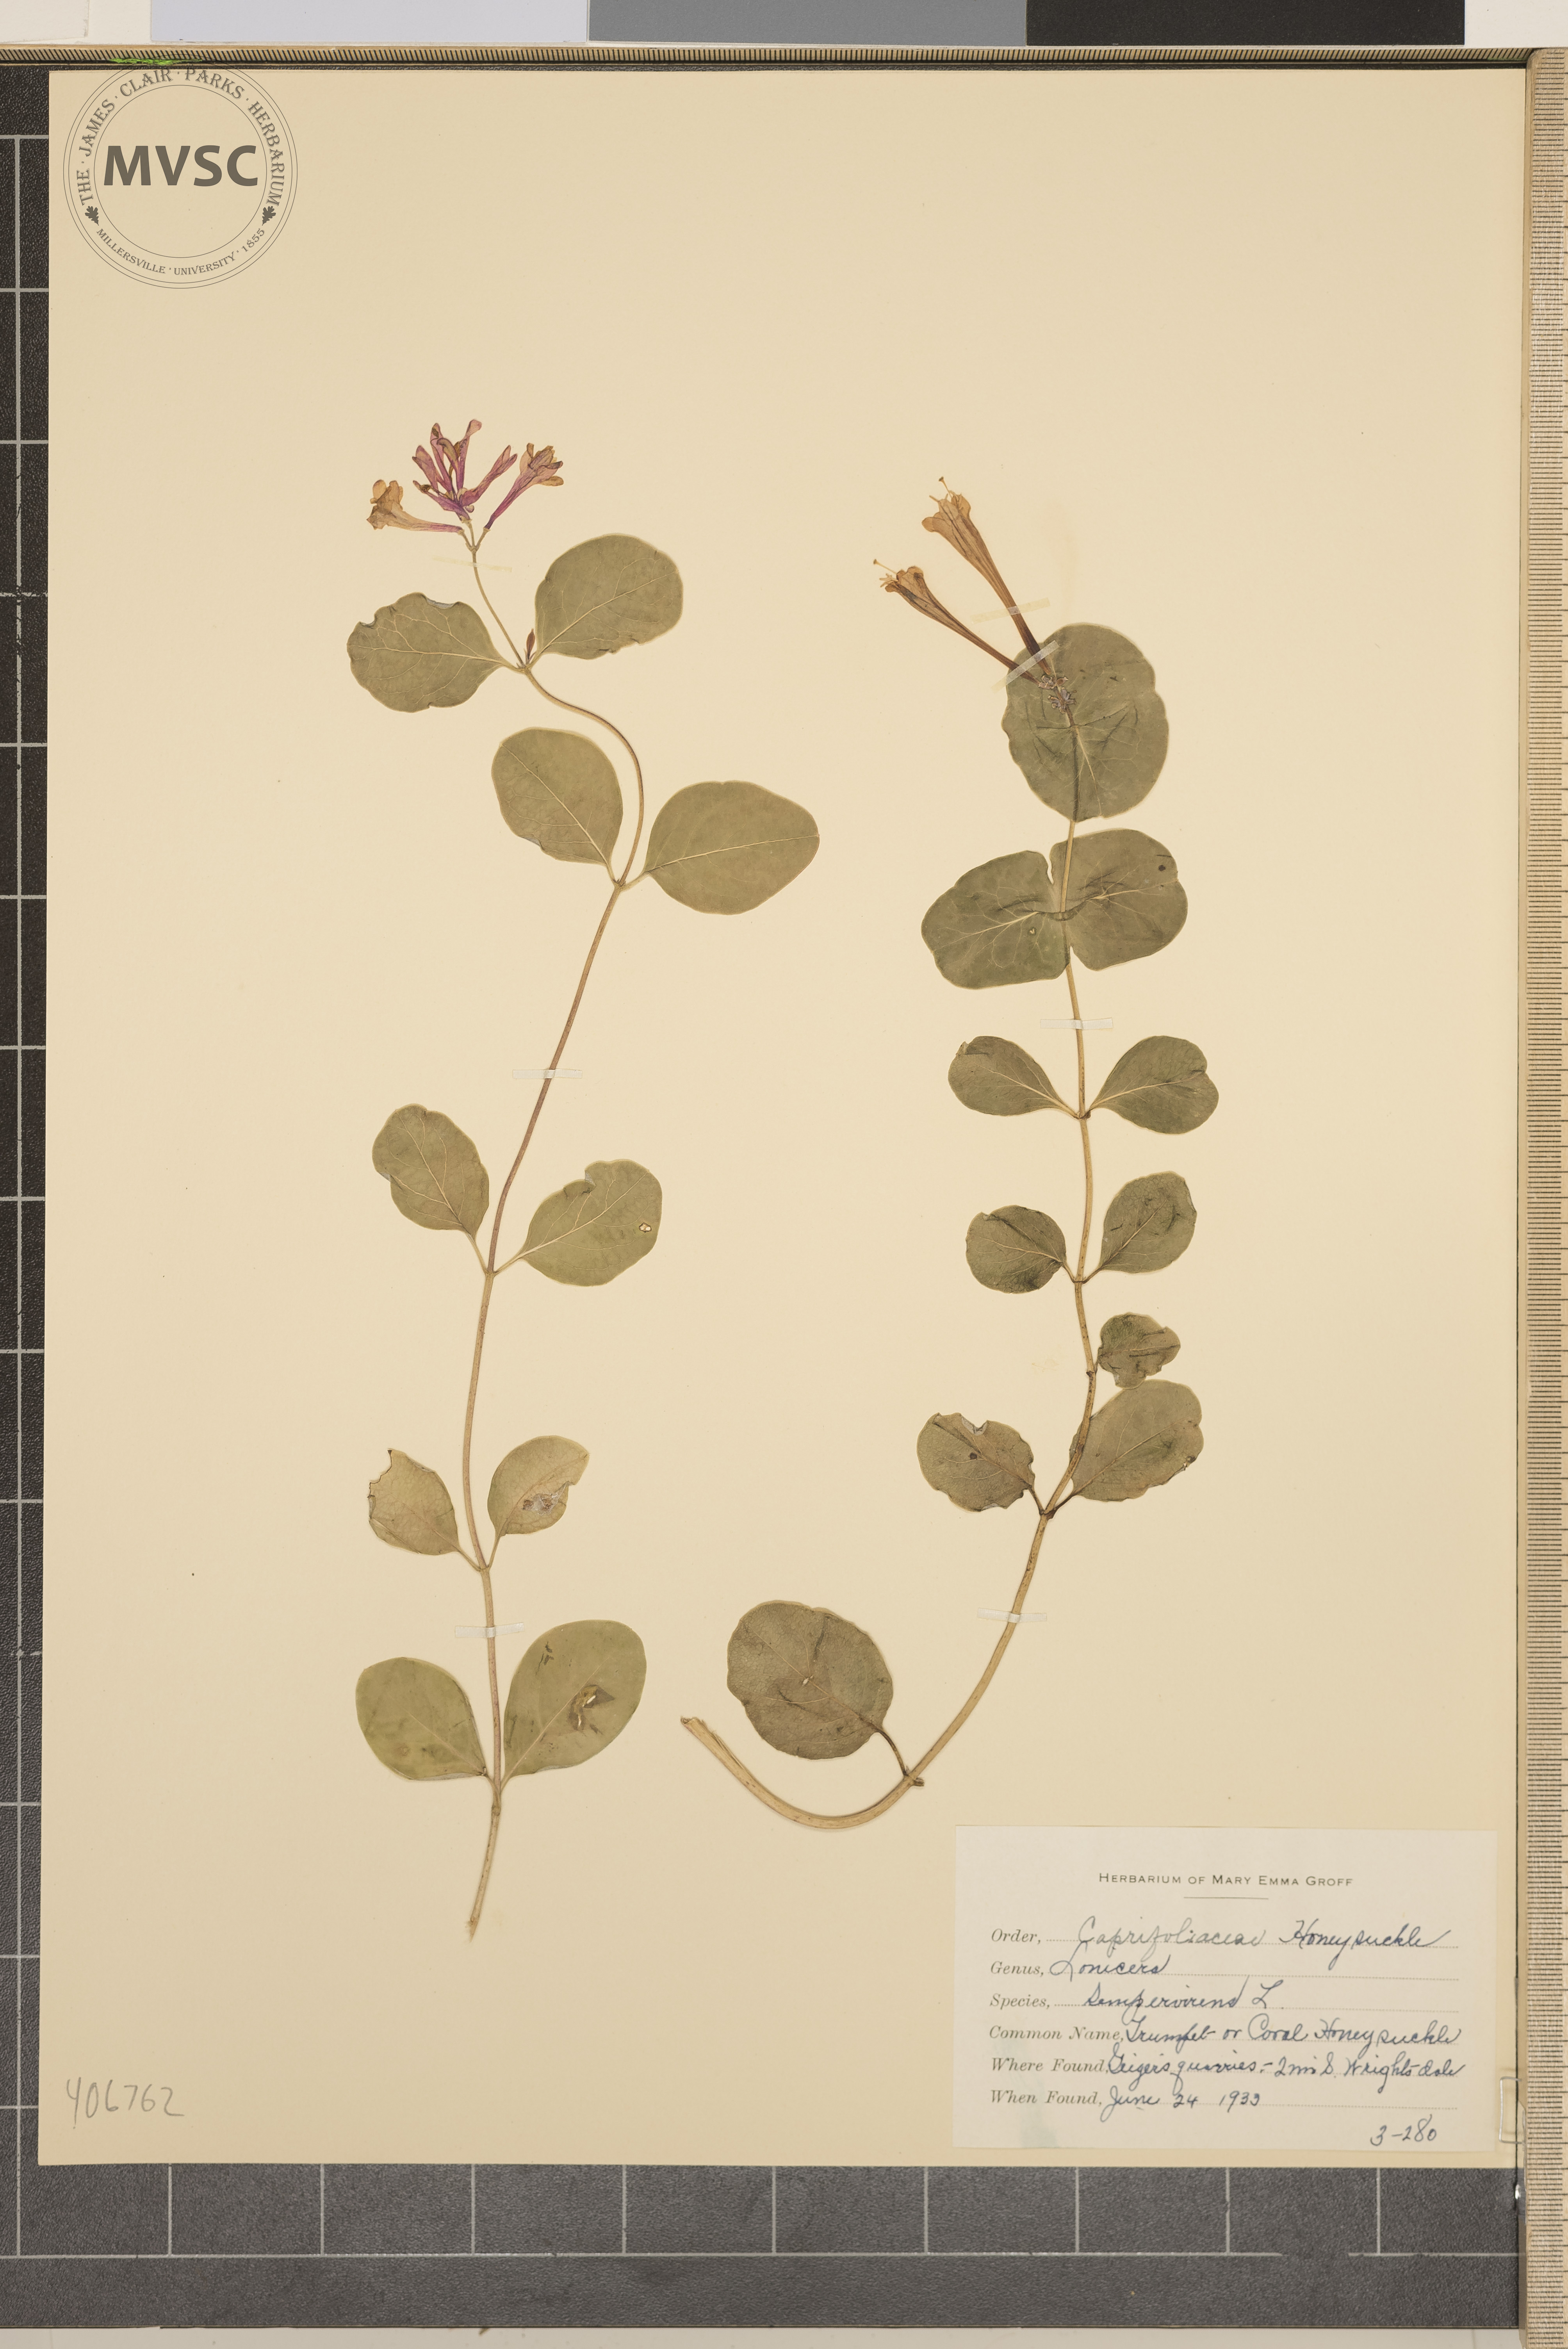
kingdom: Plantae
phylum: Tracheophyta
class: Magnoliopsida
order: Dipsacales
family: Caprifoliaceae
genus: Lonicera
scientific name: Lonicera sempervirens
